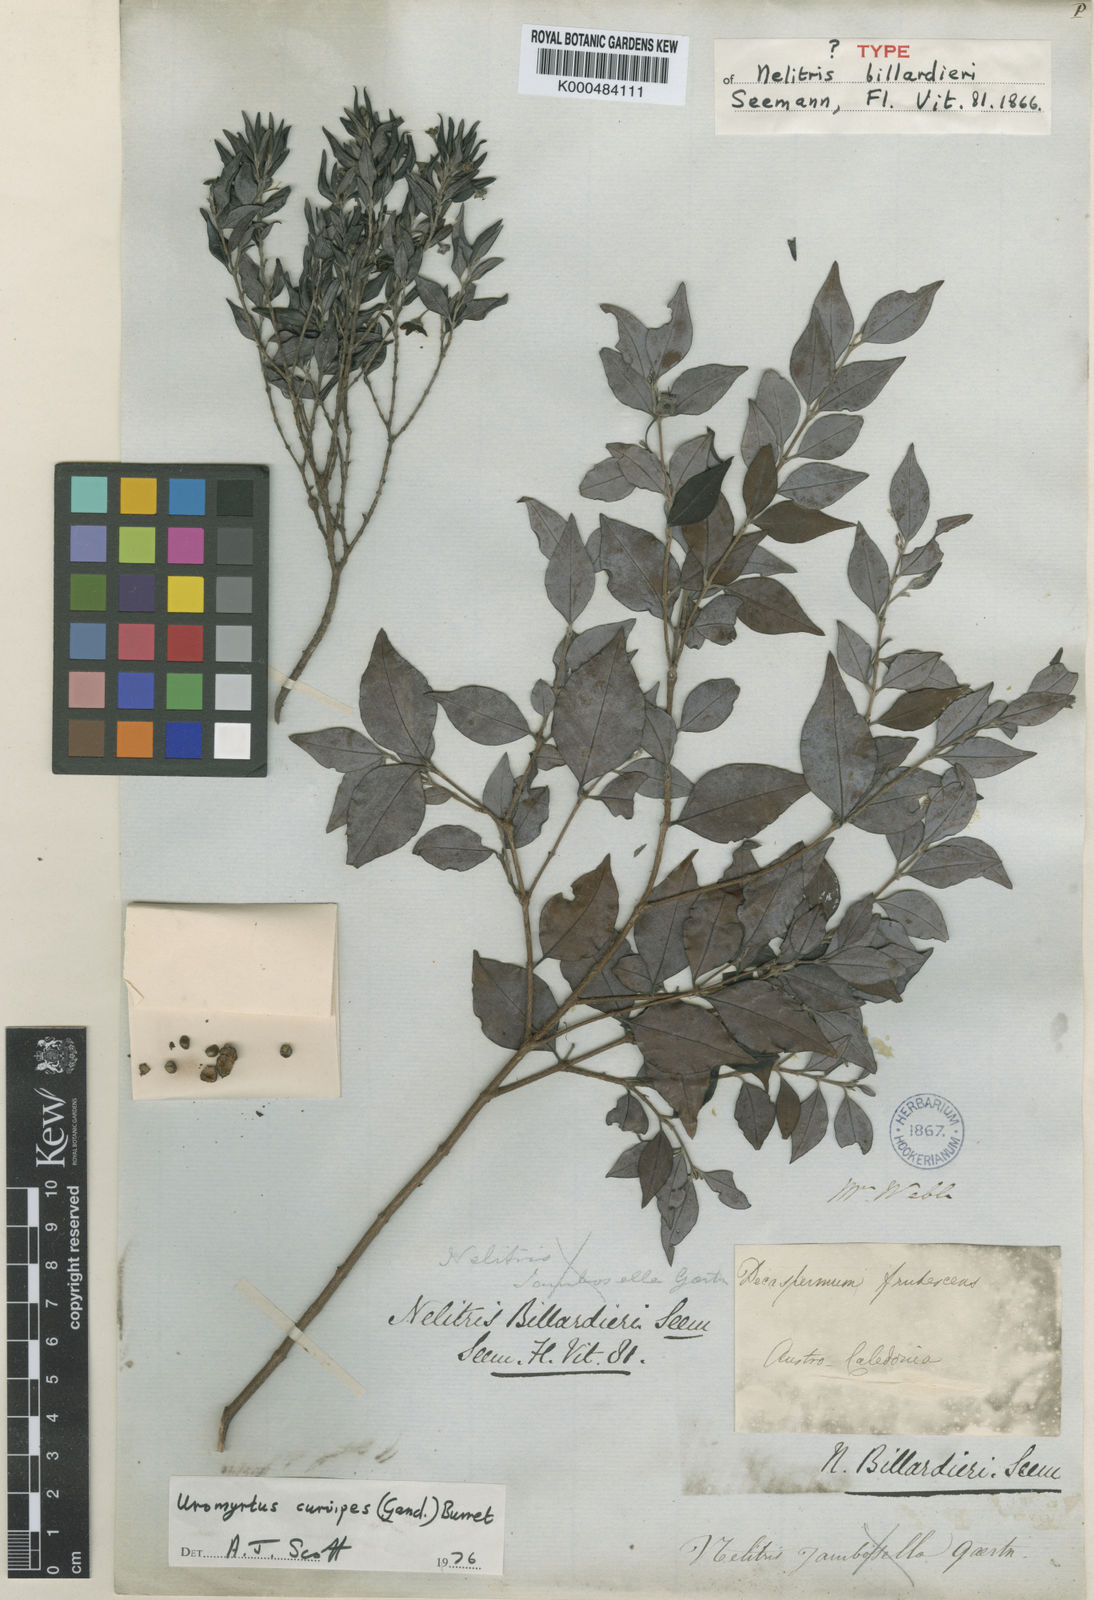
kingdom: Plantae
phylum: Tracheophyta
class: Magnoliopsida
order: Myrtales
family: Myrtaceae
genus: Uromyrtus
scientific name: Uromyrtus billardierei
